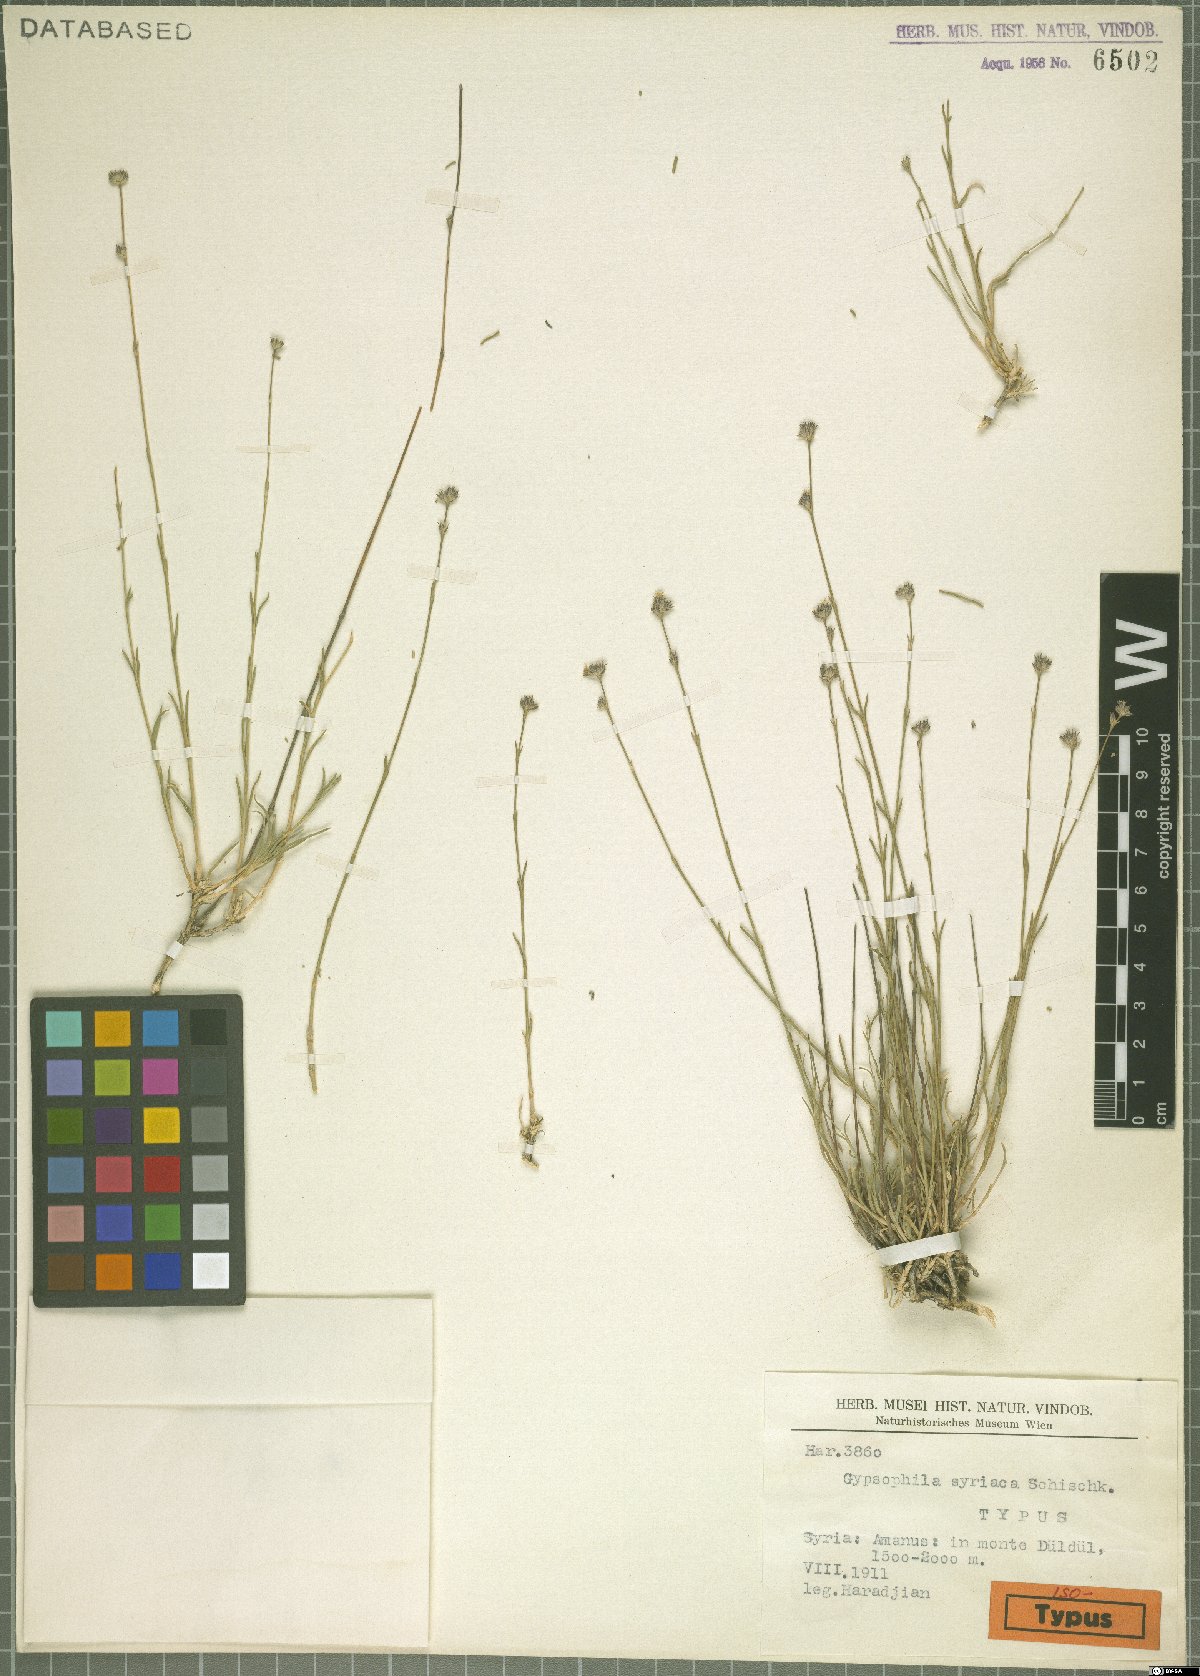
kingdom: Plantae
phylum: Tracheophyta
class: Magnoliopsida
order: Caryophyllales
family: Caryophyllaceae
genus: Gypsophila
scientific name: Gypsophila syriaca
